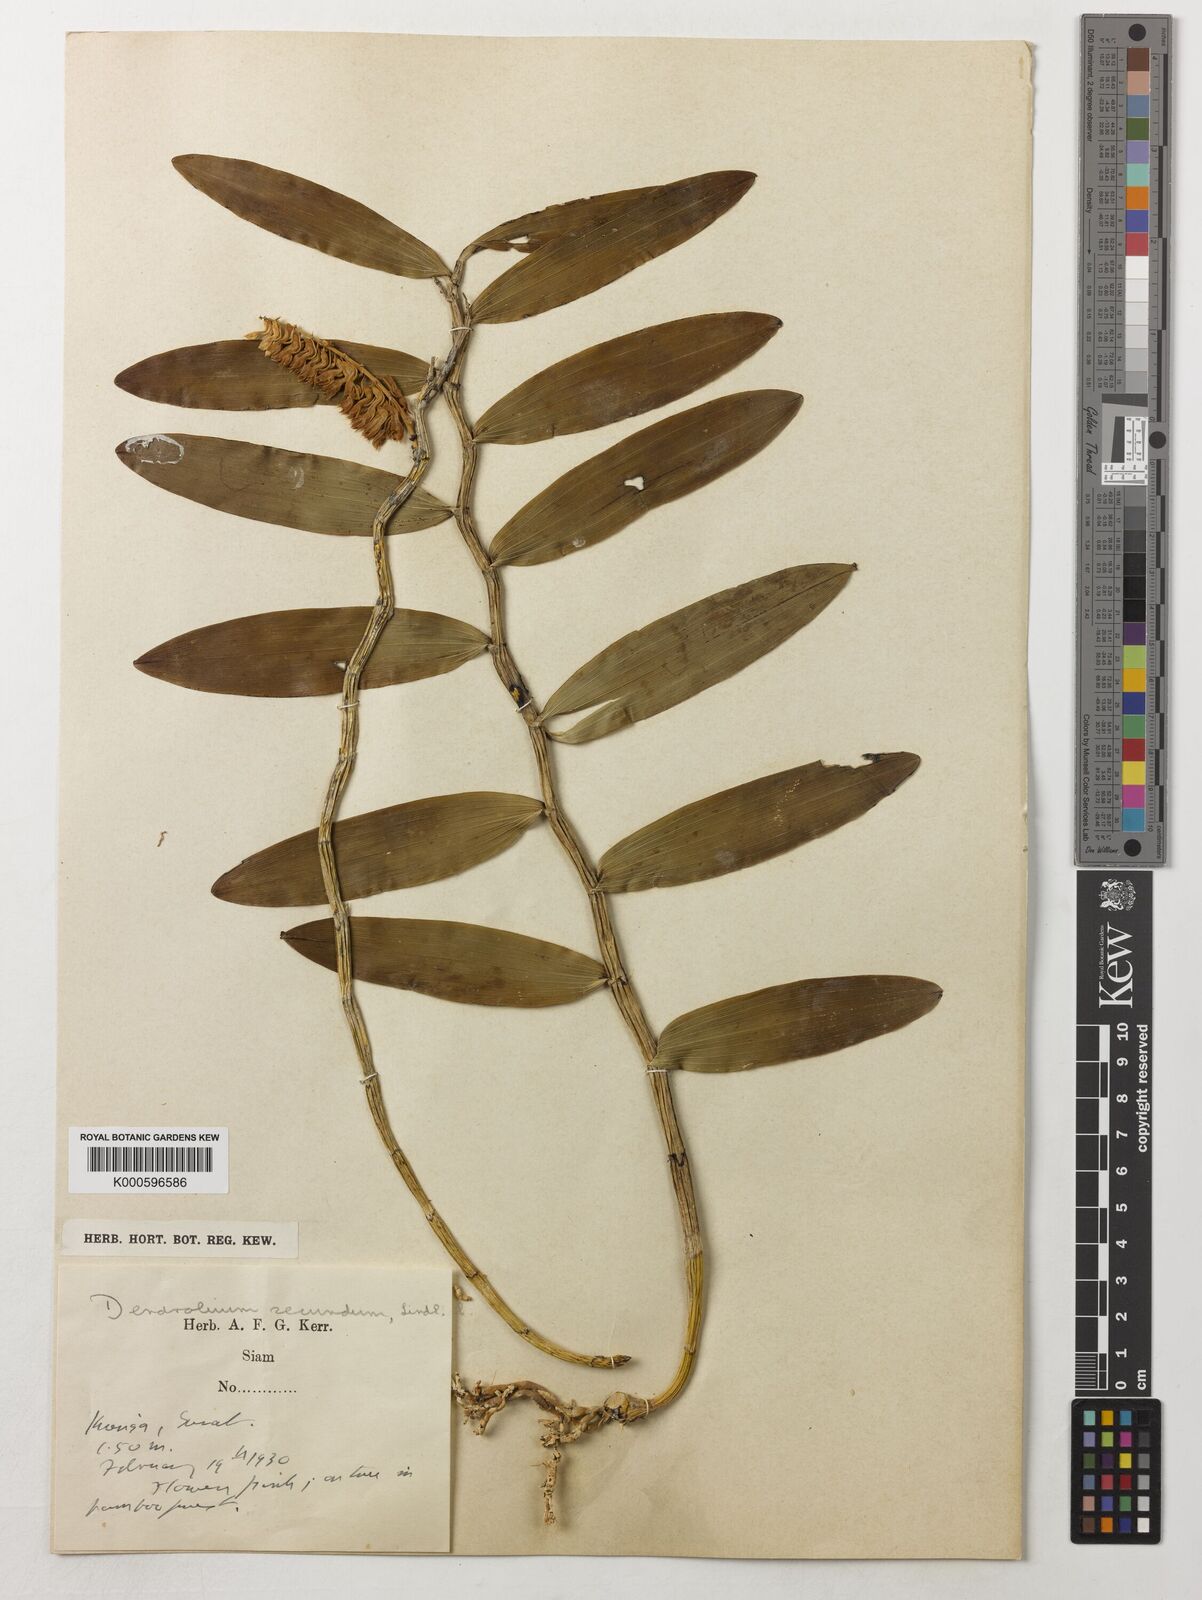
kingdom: Plantae
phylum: Tracheophyta
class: Liliopsida
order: Asparagales
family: Orchidaceae
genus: Dendrobium
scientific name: Dendrobium
